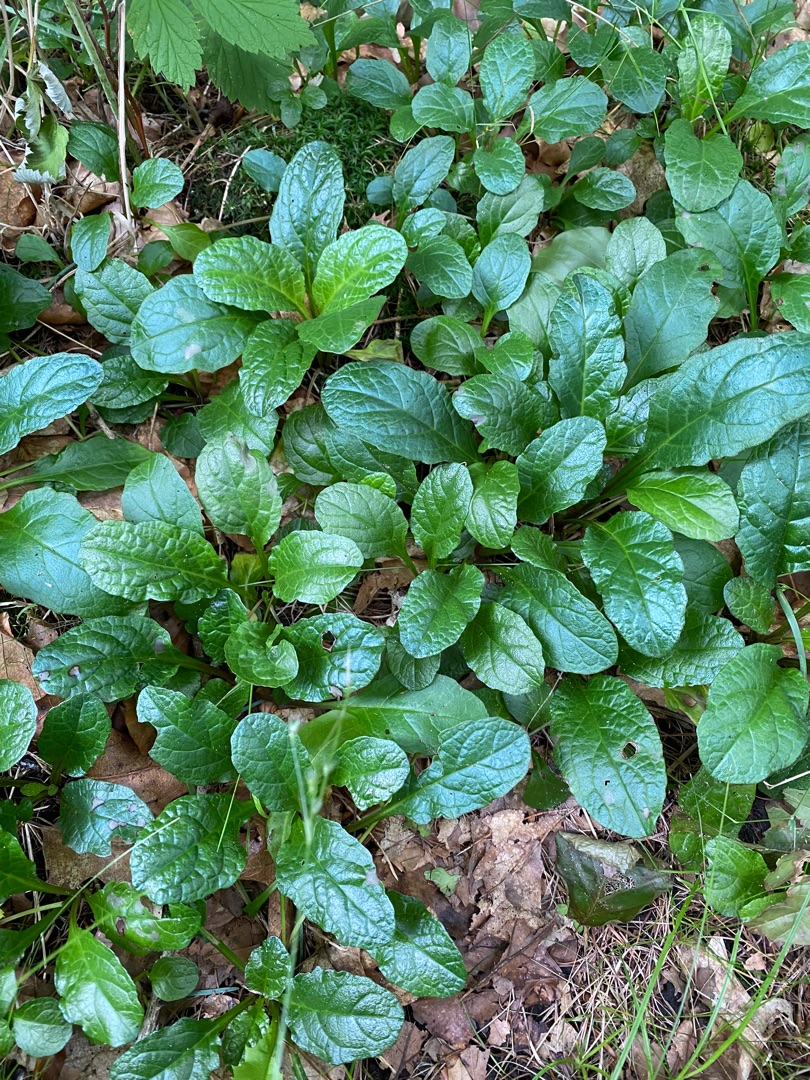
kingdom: Plantae
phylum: Tracheophyta
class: Magnoliopsida
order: Lamiales
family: Lamiaceae
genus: Ajuga
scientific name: Ajuga reptans
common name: Krybende læbeløs
